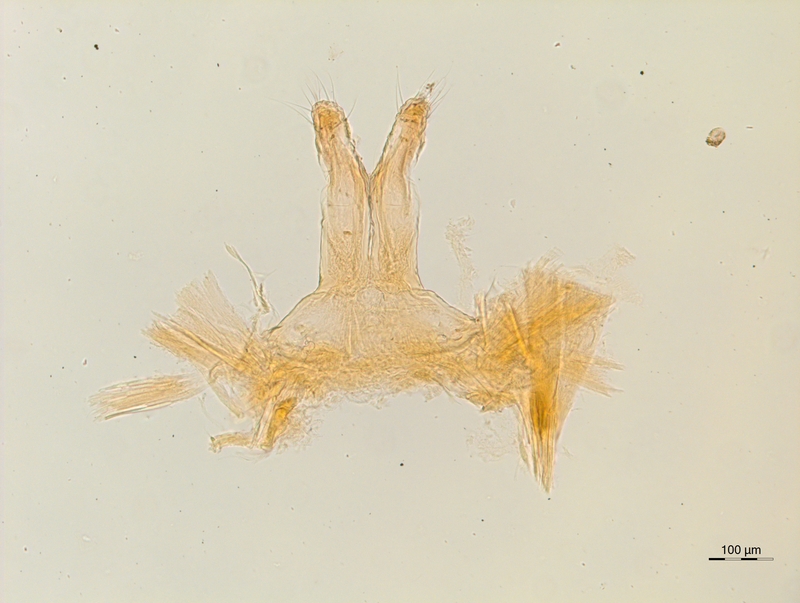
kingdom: Animalia
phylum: Arthropoda
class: Diplopoda
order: Chordeumatida
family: Attemsiidae
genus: Syngonopodium
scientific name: Syngonopodium aceris
